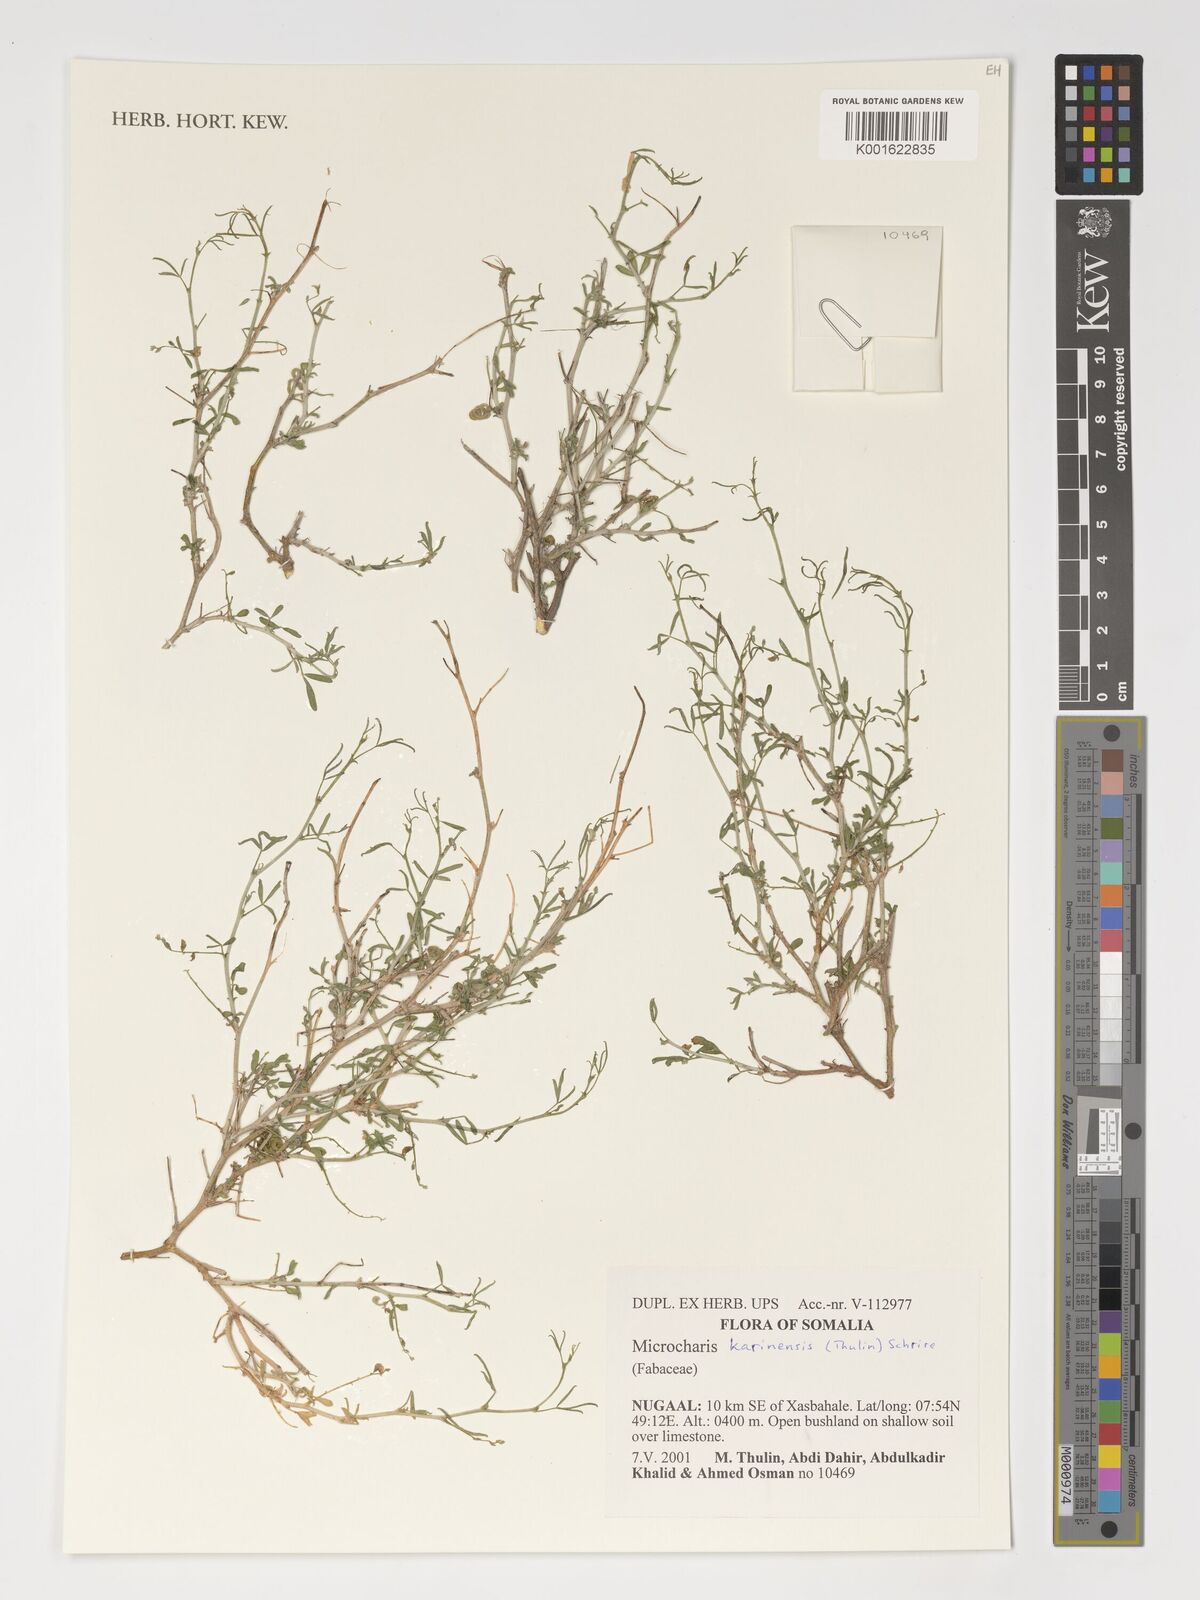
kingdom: Plantae
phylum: Tracheophyta
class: Magnoliopsida
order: Fabales
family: Fabaceae
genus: Microcharis
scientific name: Microcharis karinensis
